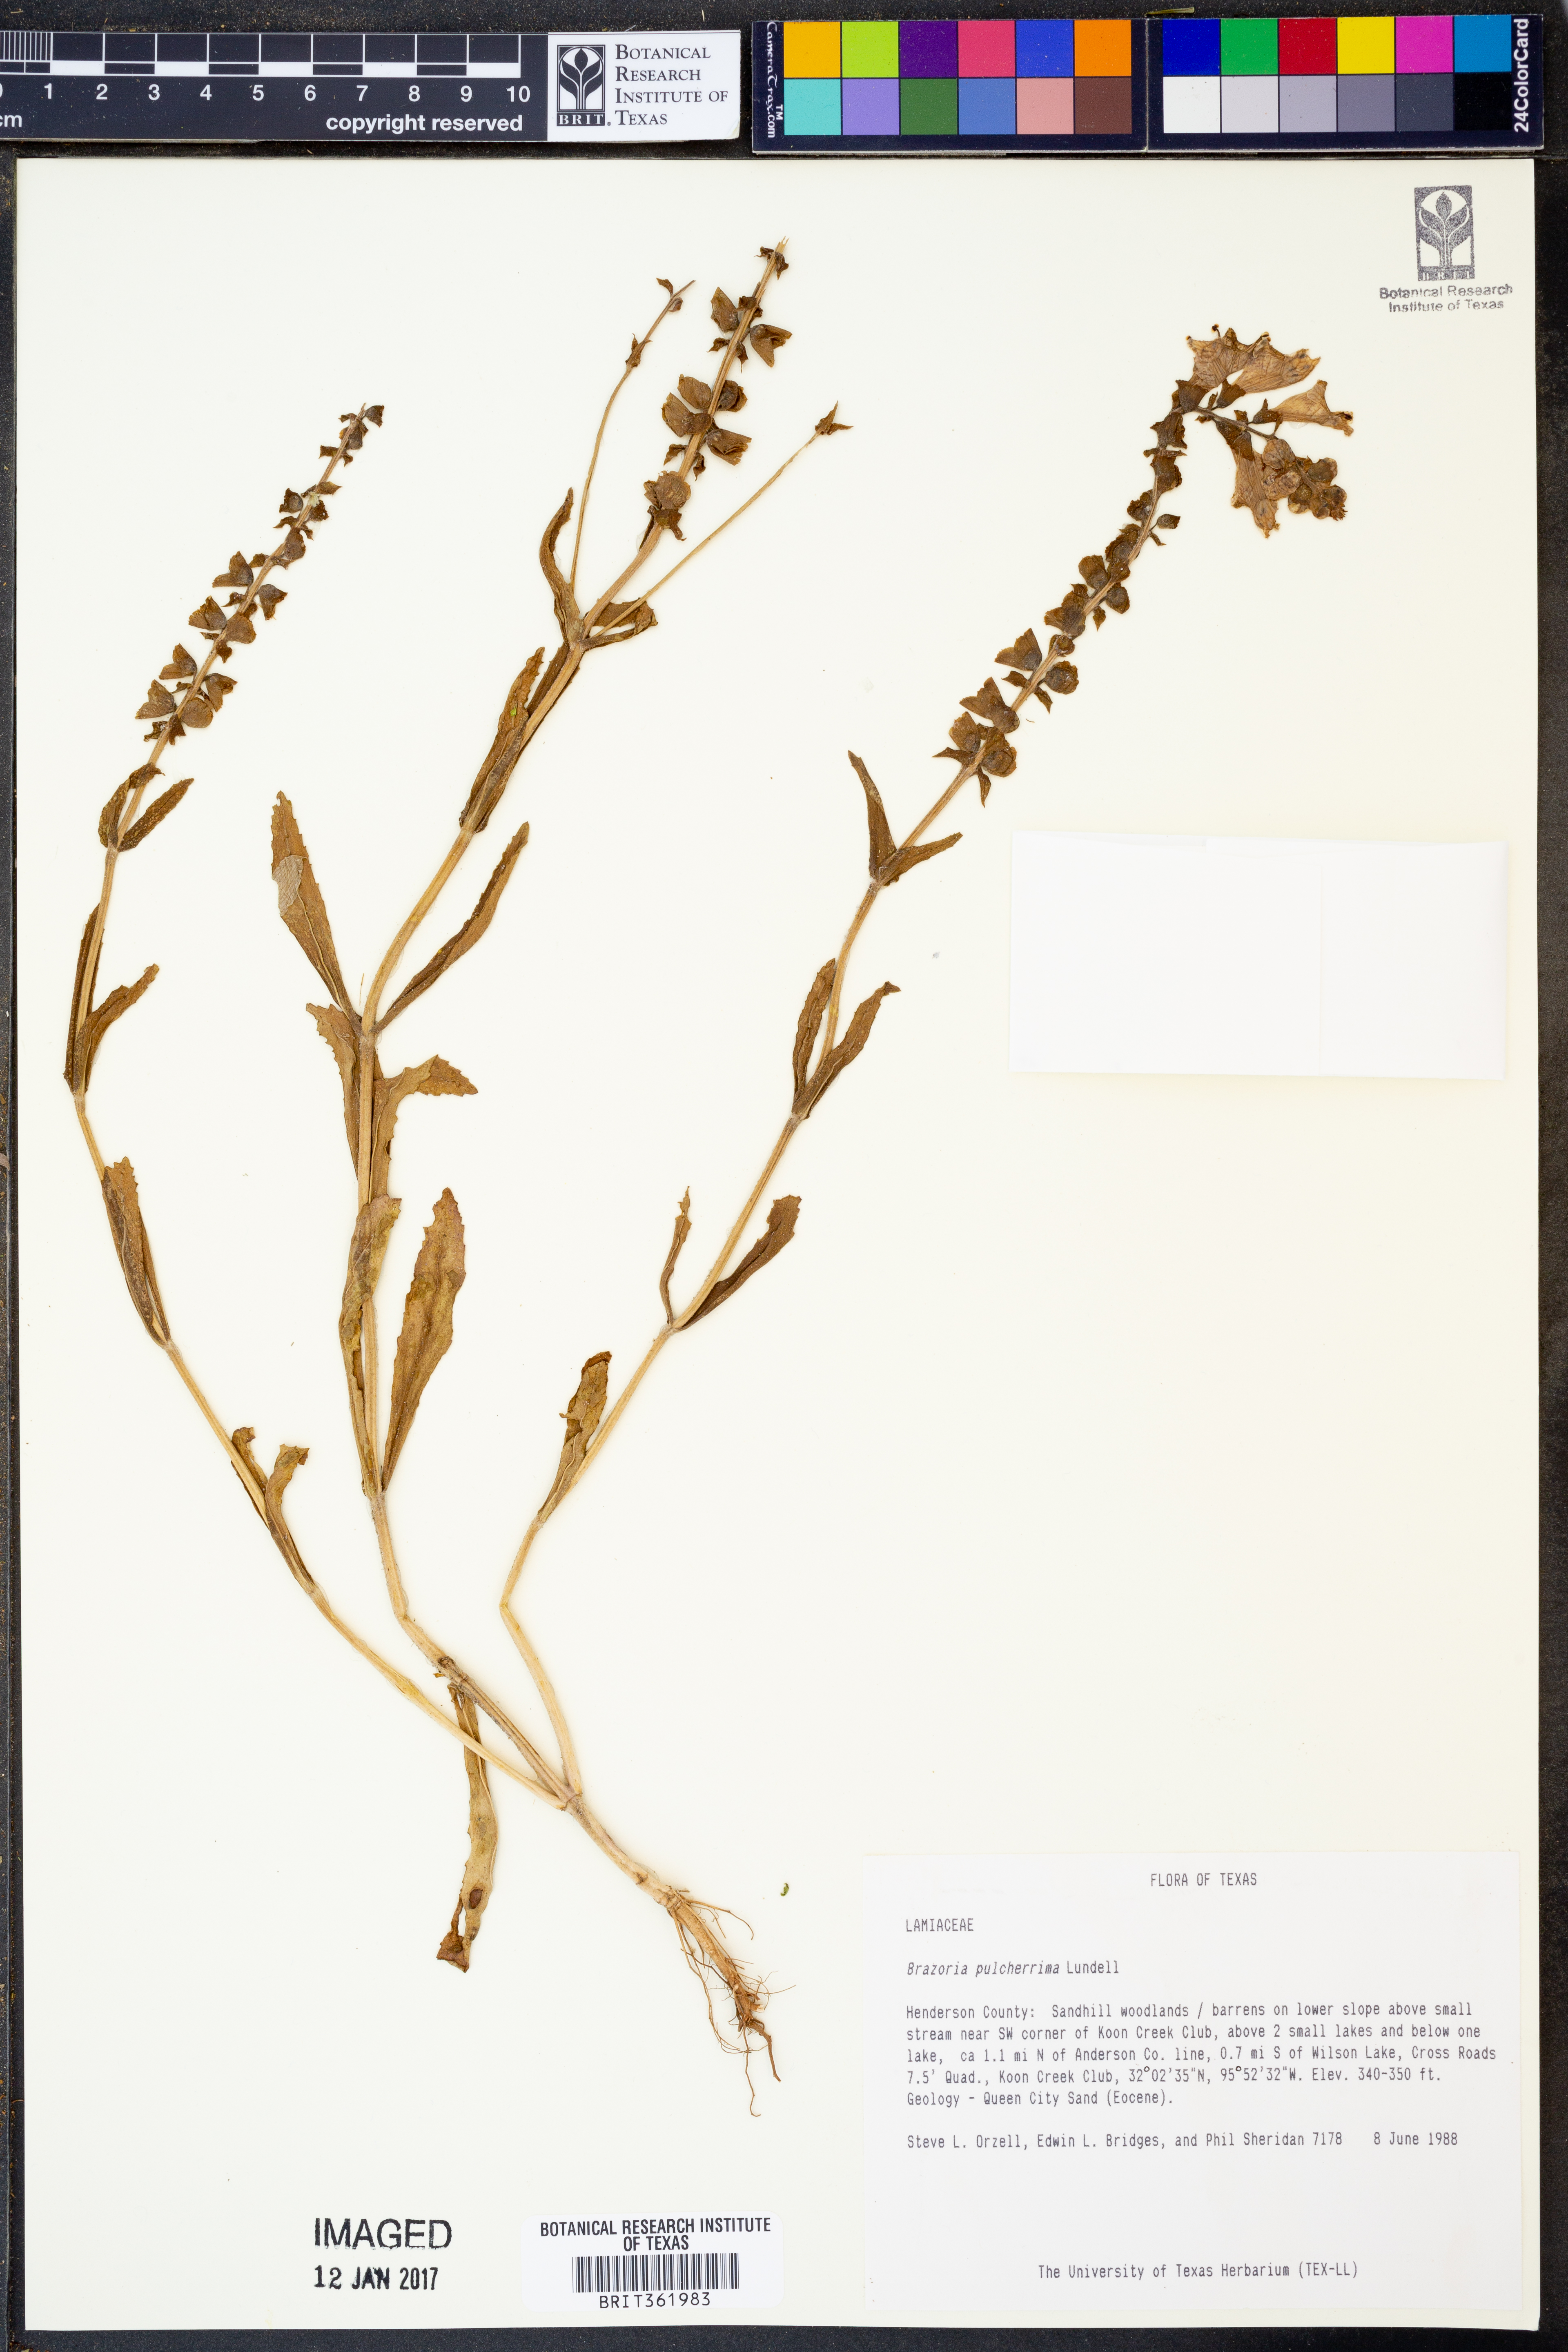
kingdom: Plantae
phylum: Tracheophyta
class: Magnoliopsida
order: Lamiales
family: Lamiaceae
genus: Brazoria
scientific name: Brazoria truncata
